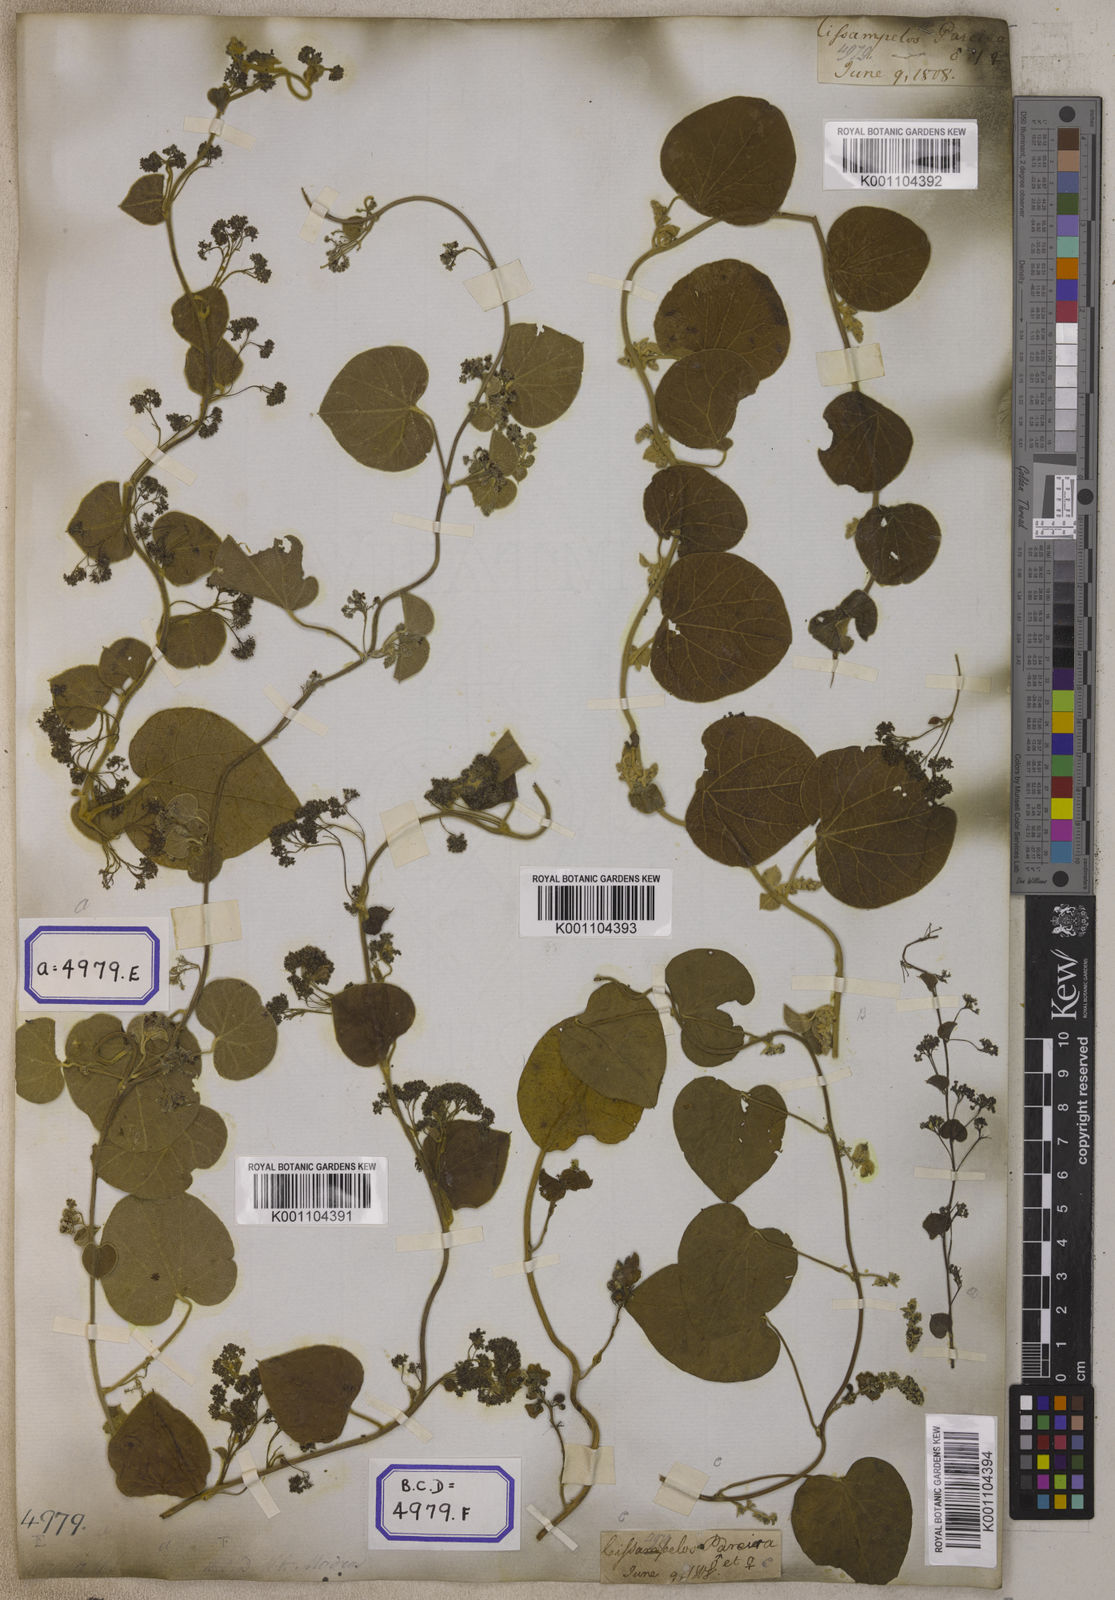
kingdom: Plantae
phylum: Tracheophyta
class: Magnoliopsida
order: Ranunculales
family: Menispermaceae
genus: Cissampelos
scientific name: Cissampelos pareira
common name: Velvetleaf
